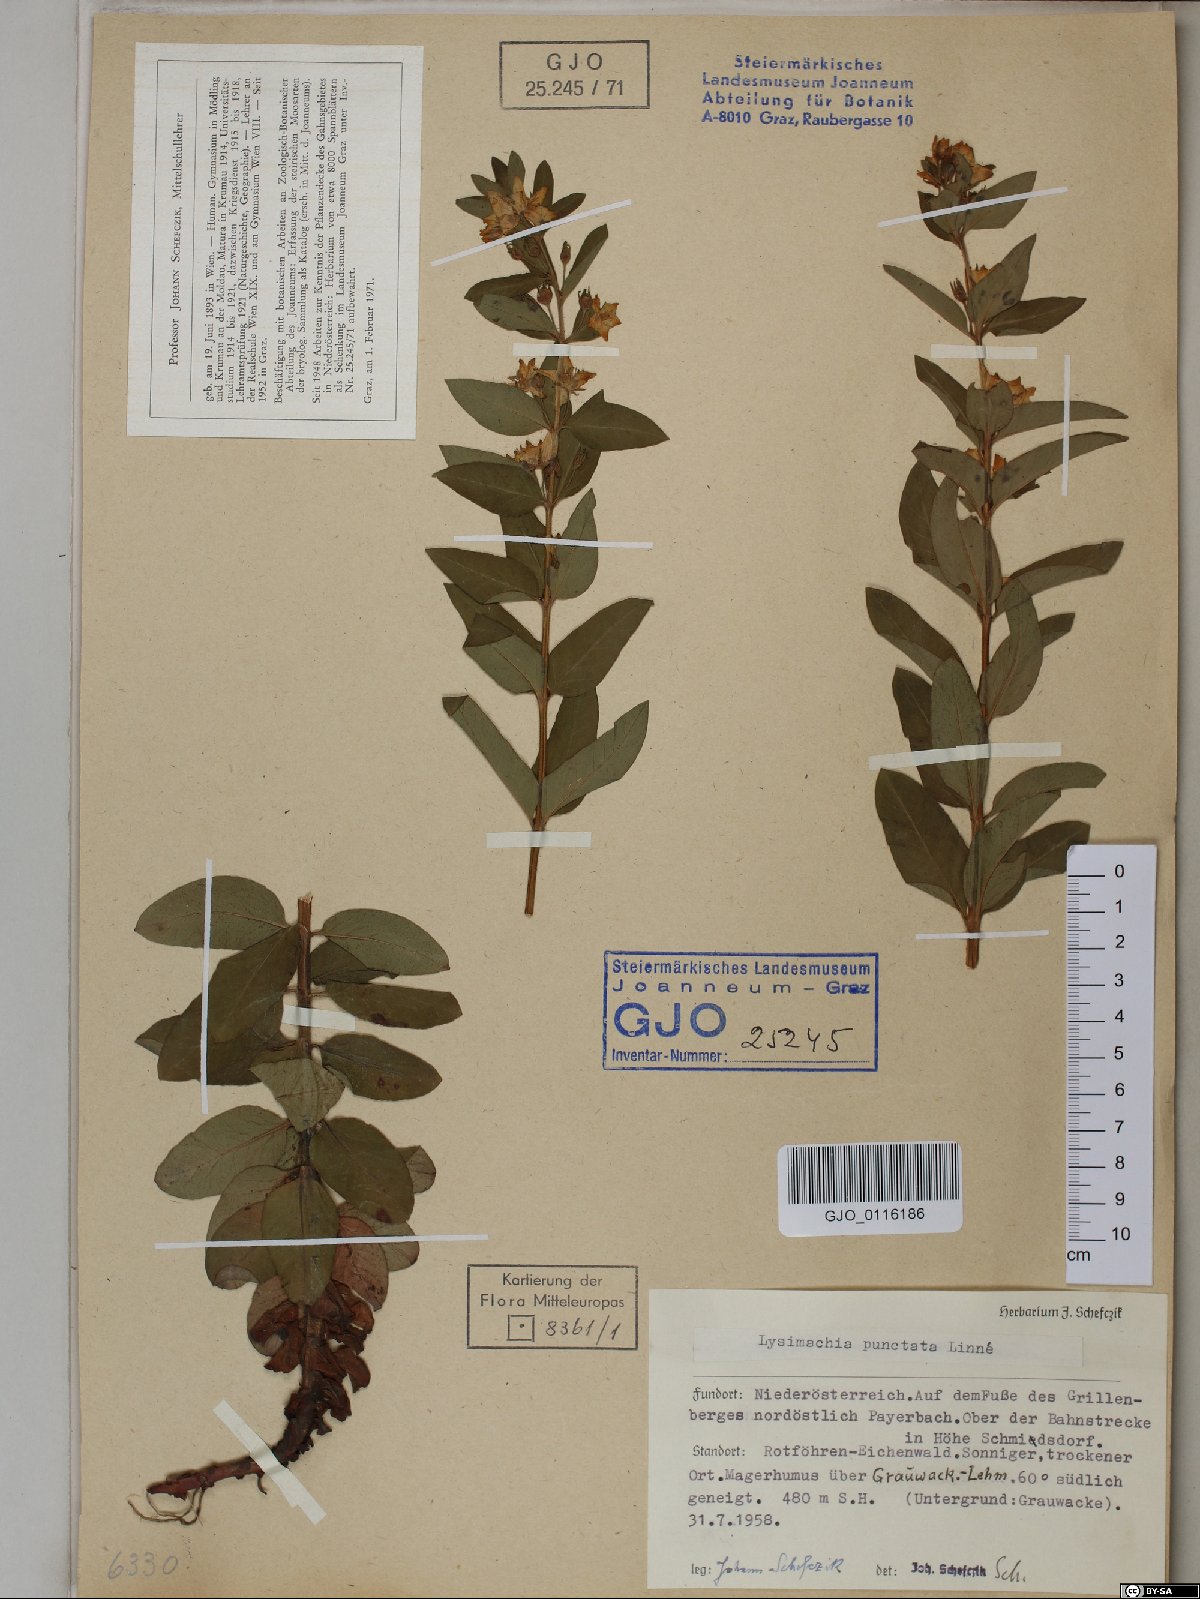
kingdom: Plantae
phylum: Tracheophyta
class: Magnoliopsida
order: Ericales
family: Primulaceae
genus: Lysimachia
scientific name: Lysimachia punctata
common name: Dotted loosestrife
